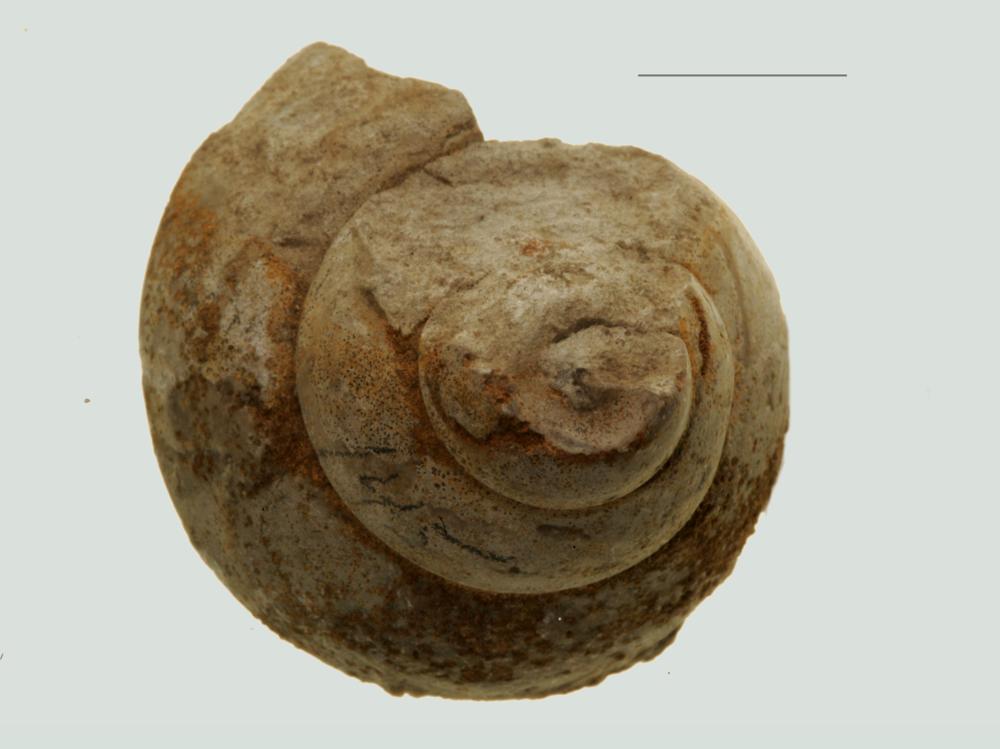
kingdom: Animalia
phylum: Mollusca
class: Gastropoda
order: Trochida
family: Trochidae
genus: Trochus
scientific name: Trochus ellipticus
